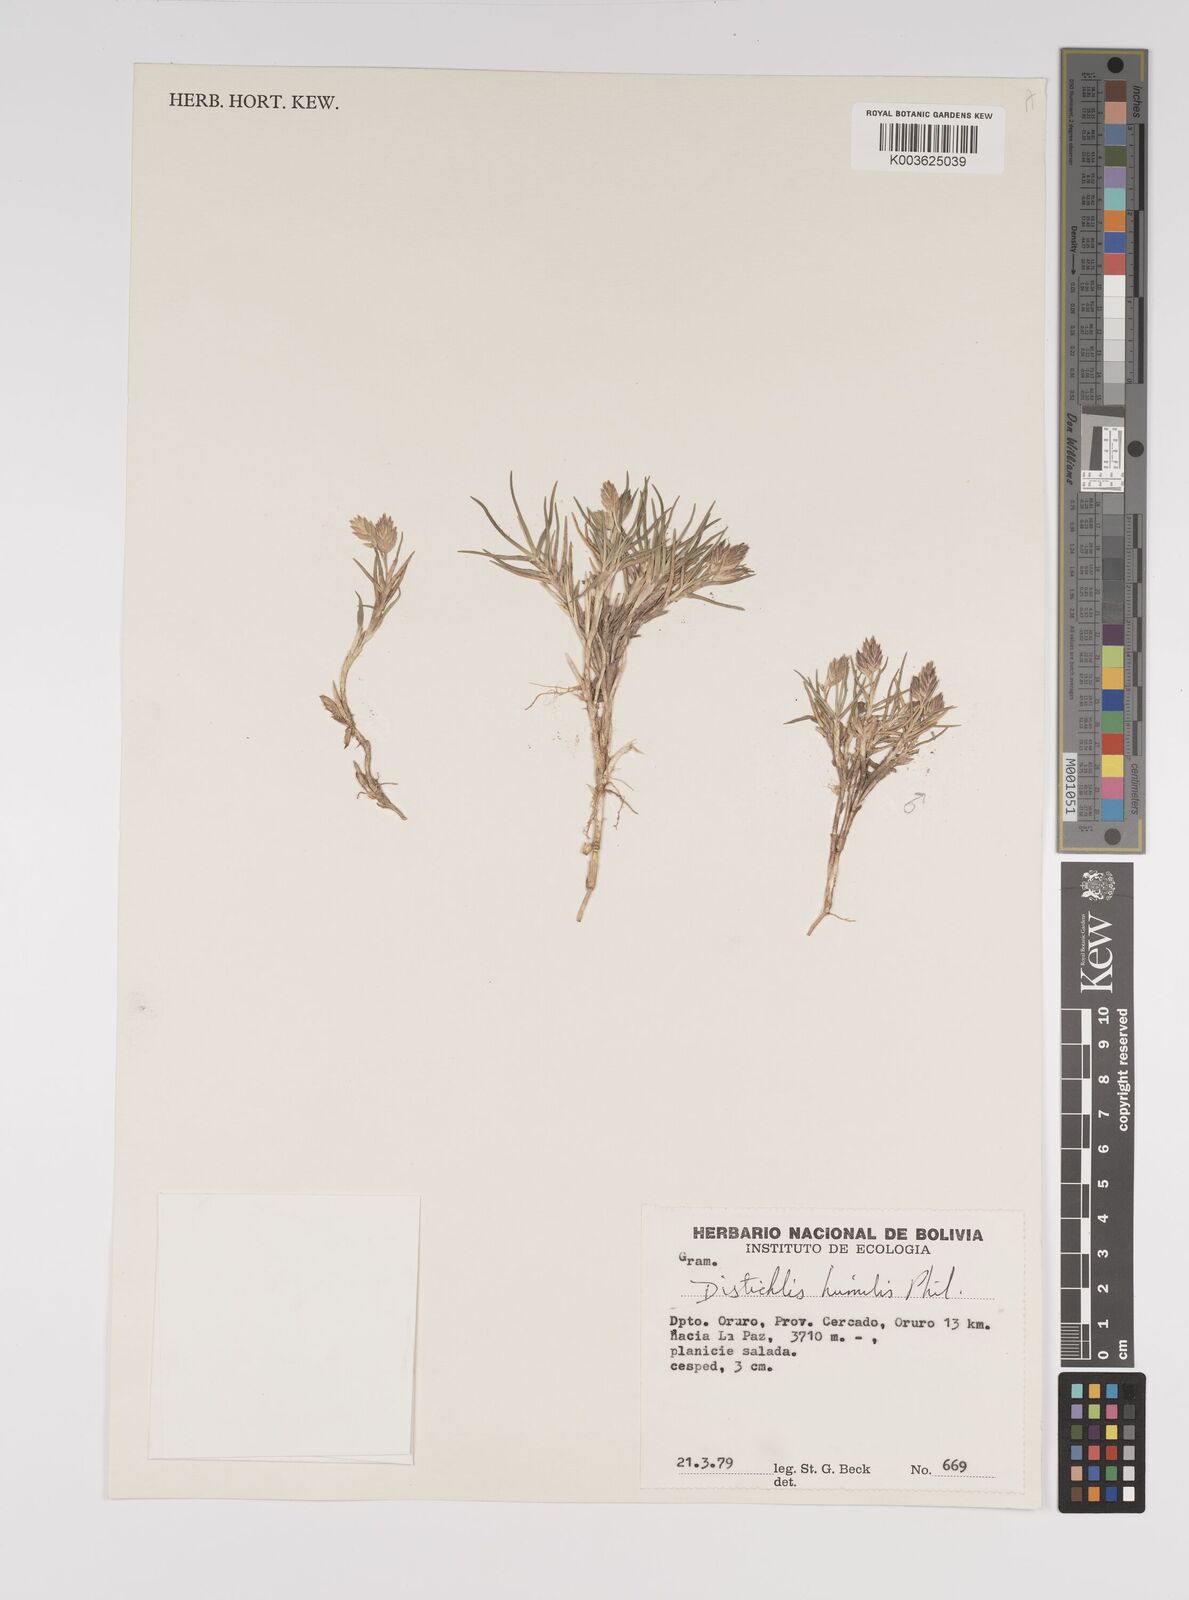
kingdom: Plantae
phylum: Tracheophyta
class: Liliopsida
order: Poales
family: Poaceae
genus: Distichlis
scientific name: Distichlis humilis
